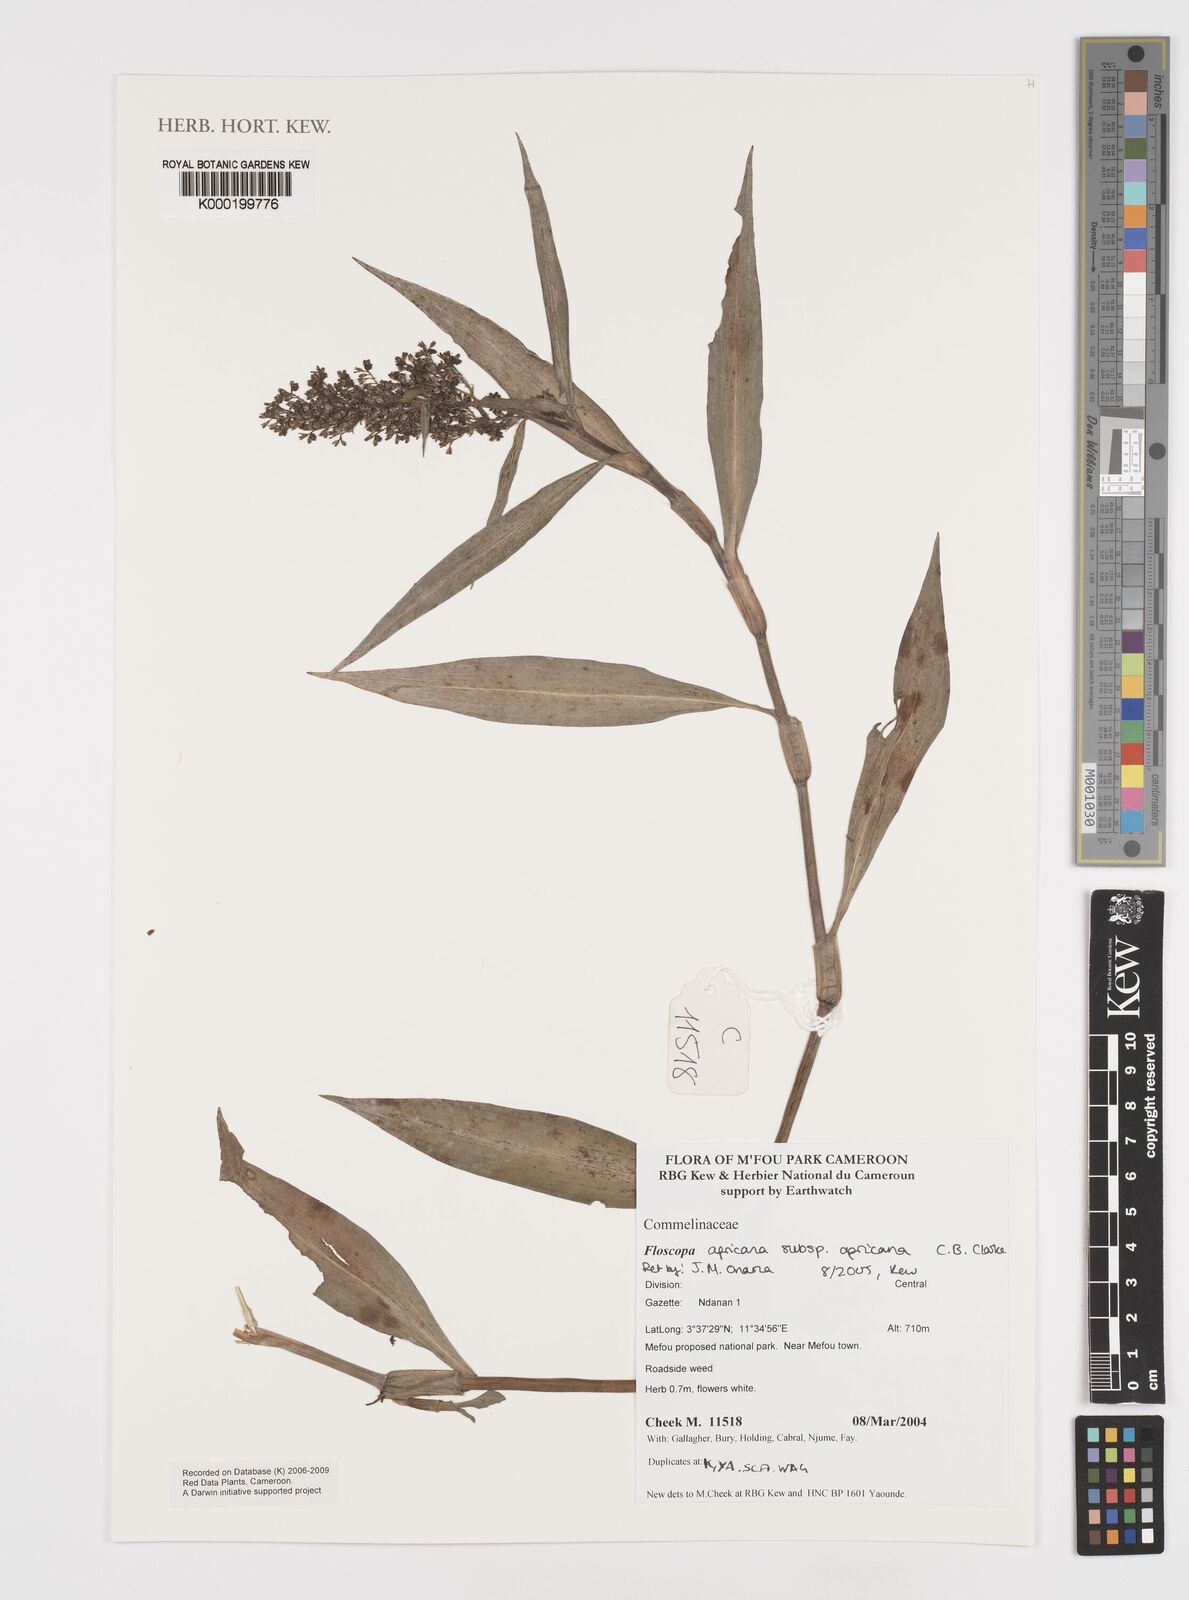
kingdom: Plantae
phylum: Tracheophyta
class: Liliopsida
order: Commelinales
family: Commelinaceae
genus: Floscopa
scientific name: Floscopa africana
